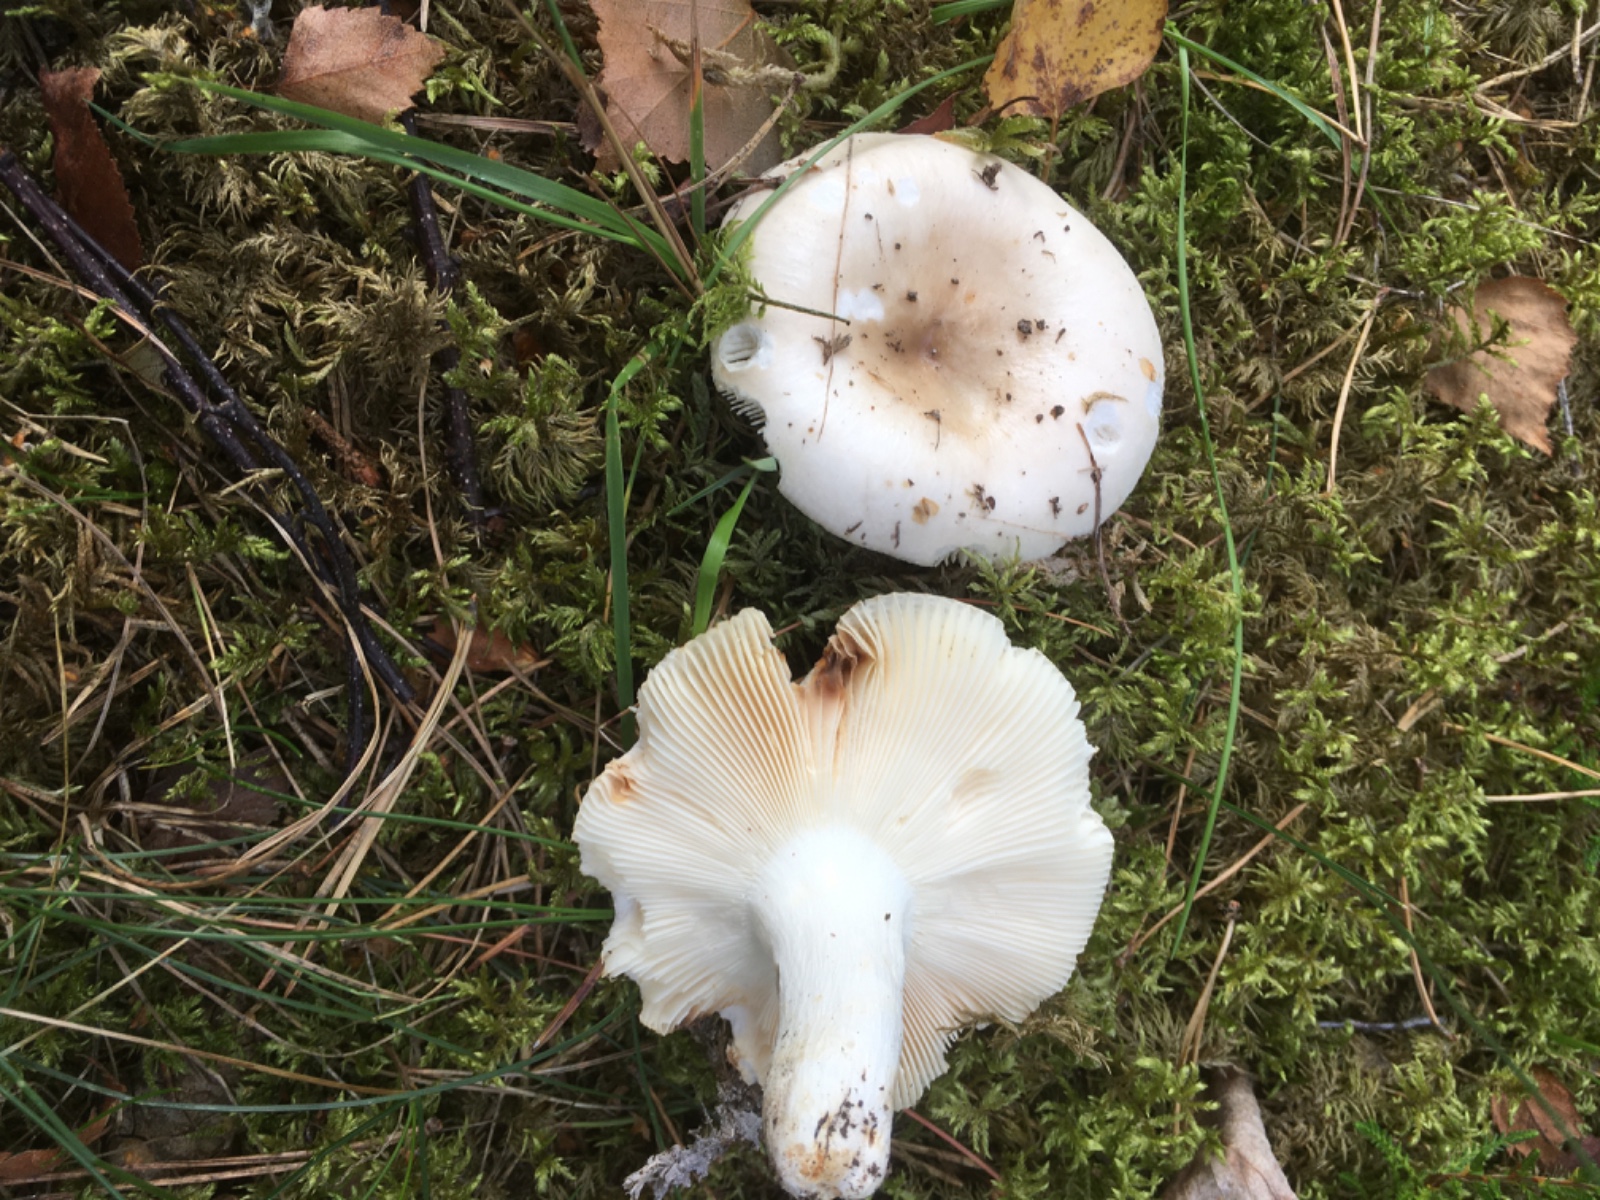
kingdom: Fungi
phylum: Basidiomycota
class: Agaricomycetes
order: Russulales
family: Russulaceae
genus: Russula
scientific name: Russula aeruginea
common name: græsgrøn skørhat
